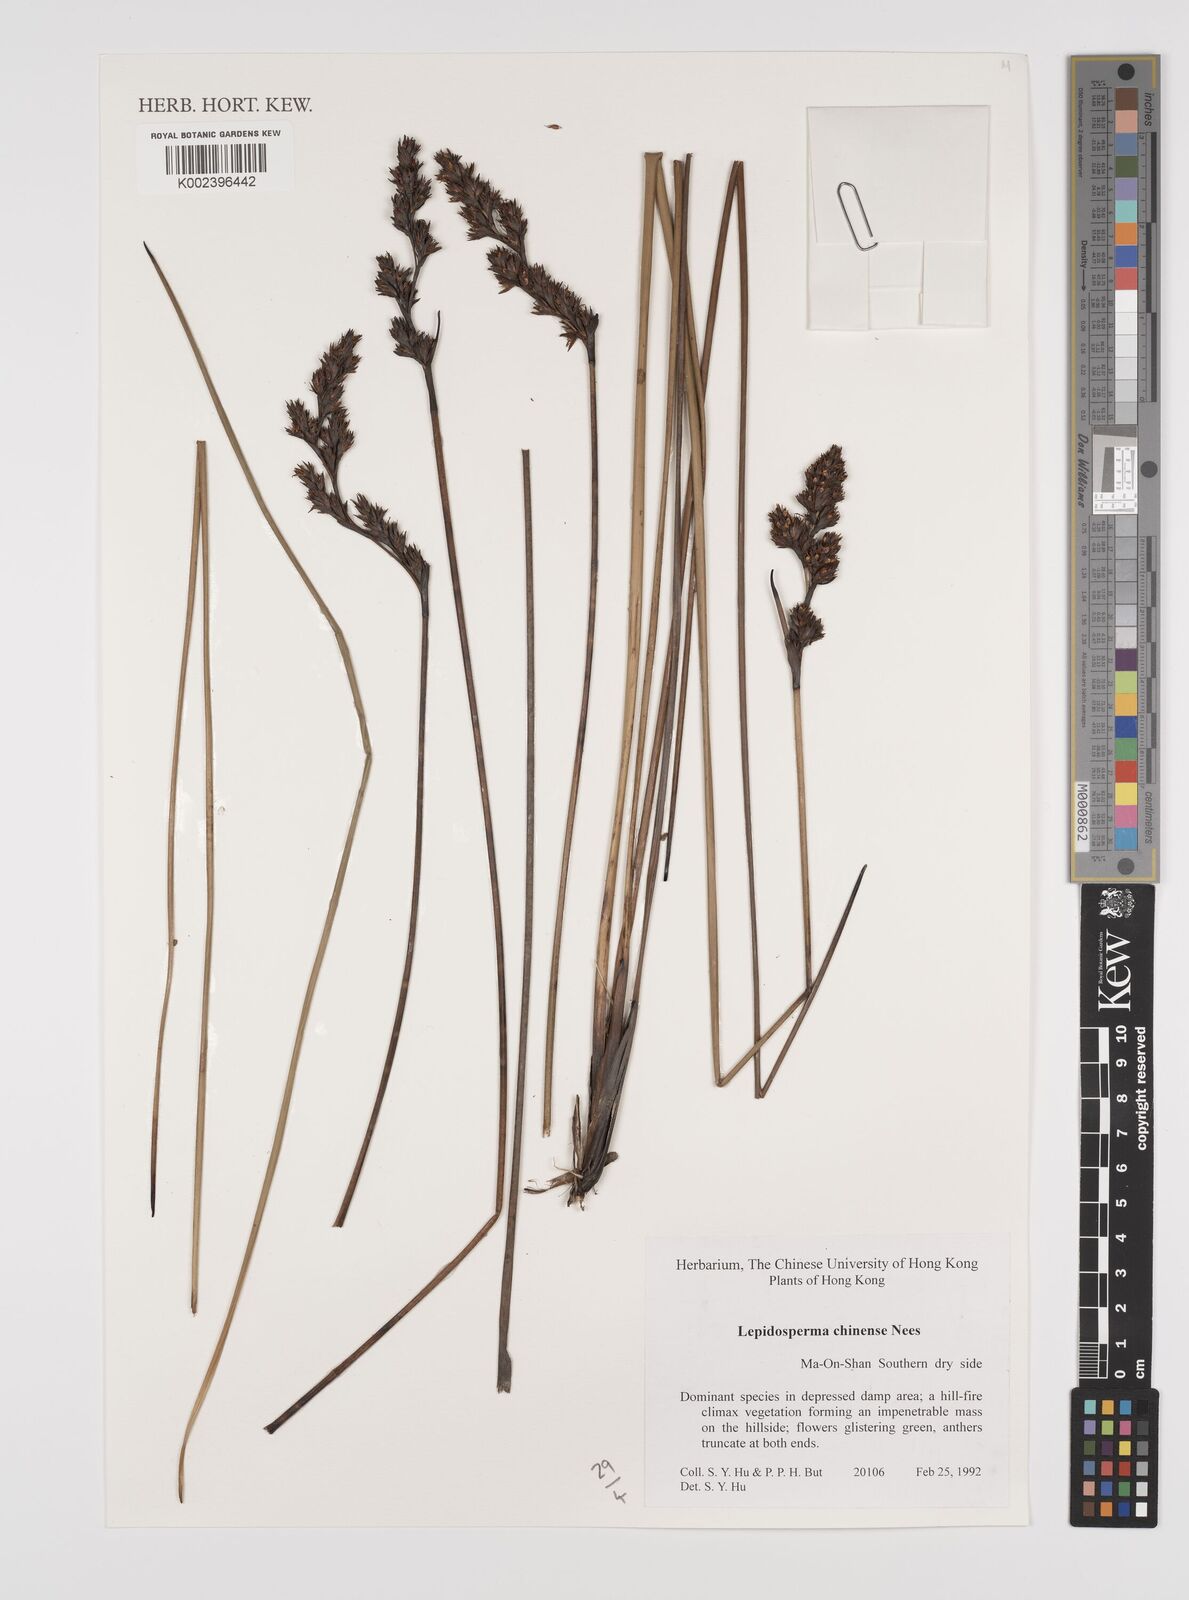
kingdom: Plantae
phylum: Tracheophyta
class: Liliopsida
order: Poales
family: Cyperaceae
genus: Lepidosperma
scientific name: Lepidosperma chinense
